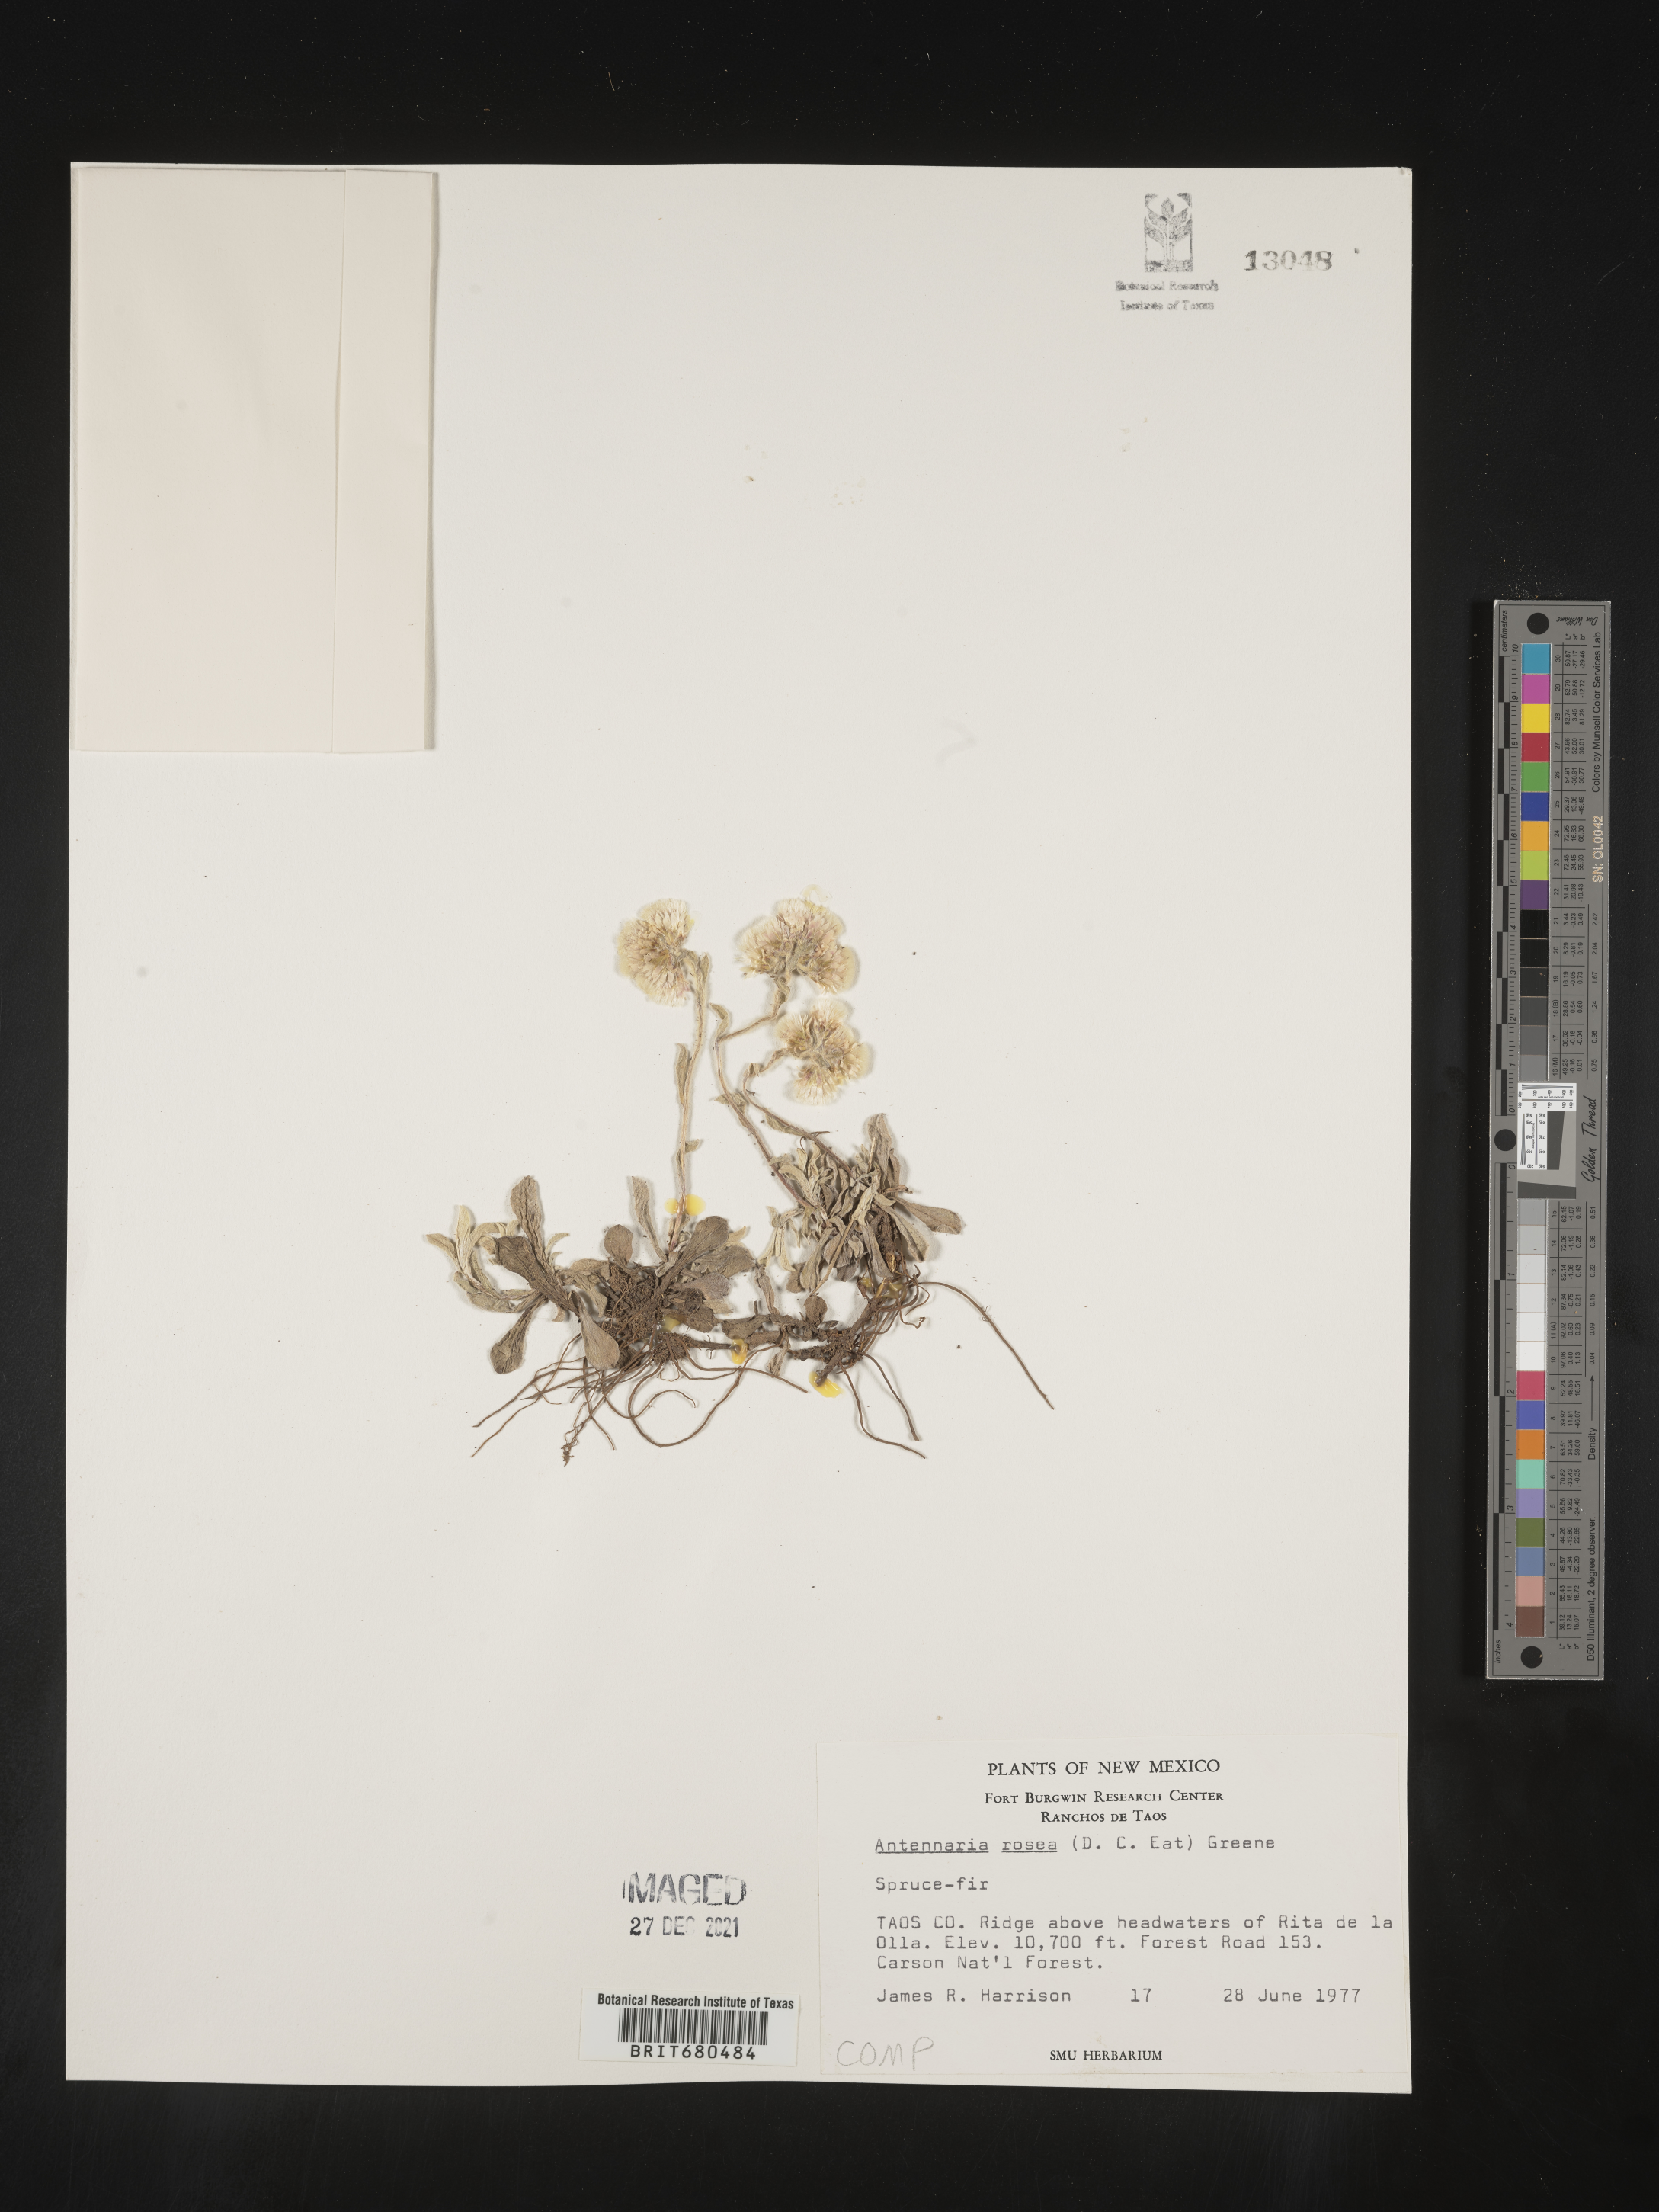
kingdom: Plantae
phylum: Tracheophyta
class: Magnoliopsida
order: Asterales
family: Asteraceae
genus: Antennaria
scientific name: Antennaria rosea
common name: Rosy pussytoes
